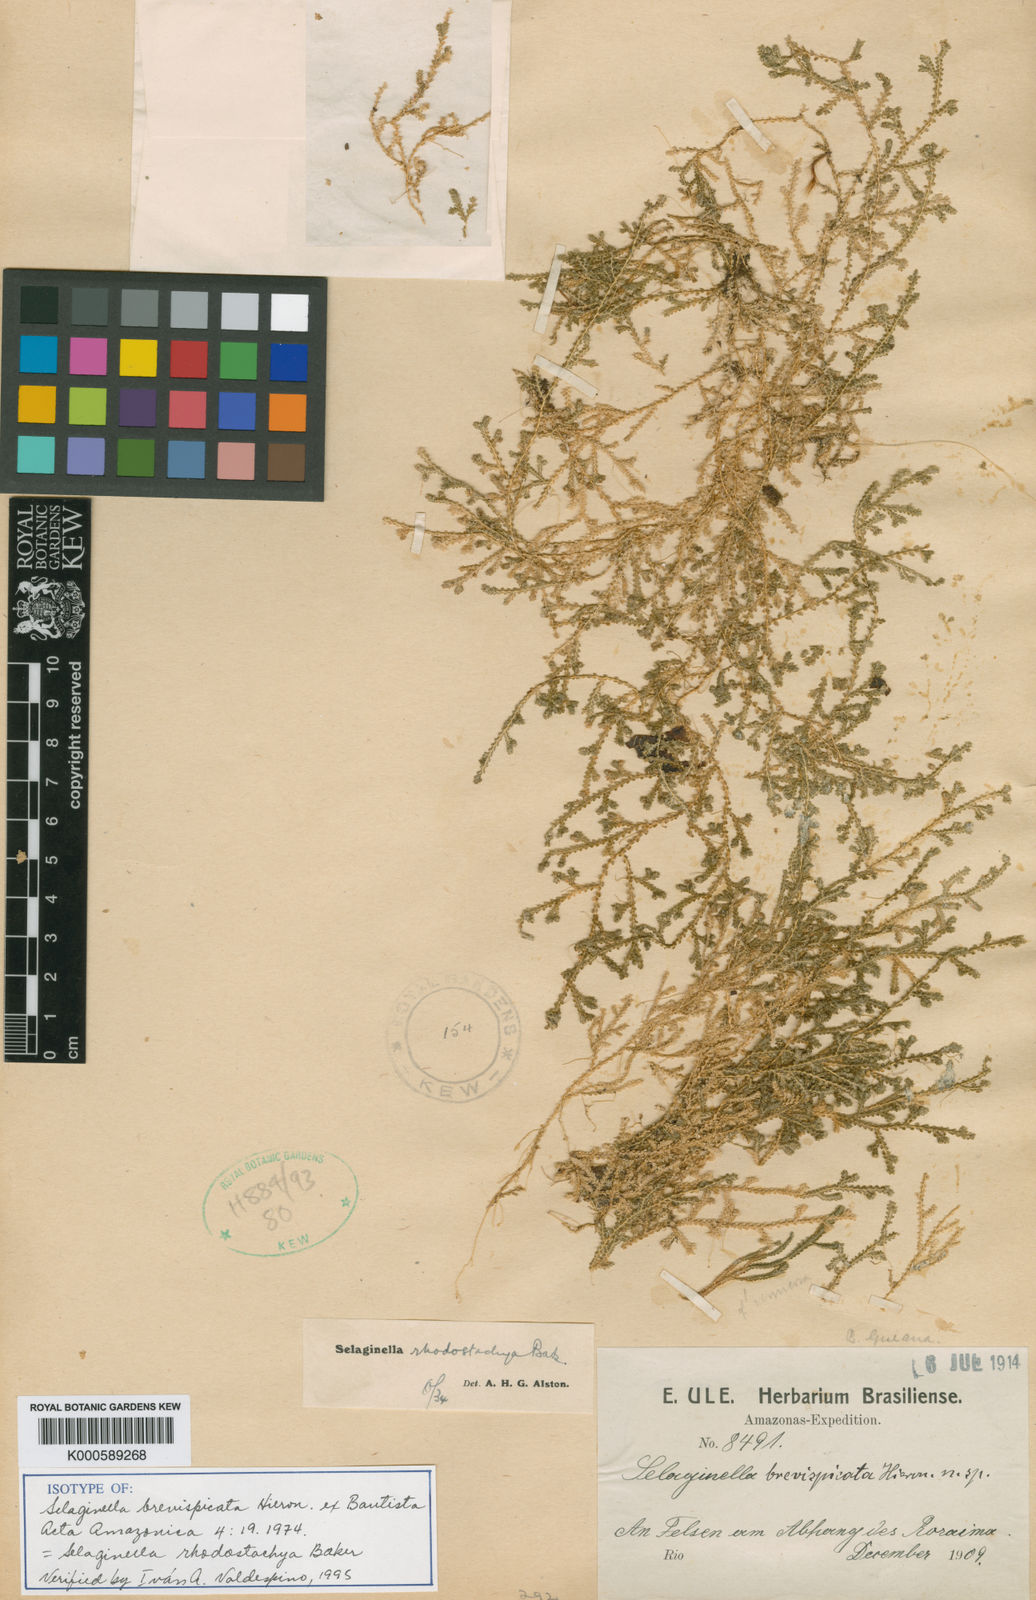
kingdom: Plantae
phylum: Tracheophyta
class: Lycopodiopsida
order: Selaginellales
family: Selaginellaceae
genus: Selaginella
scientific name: Selaginella rhodostachya
